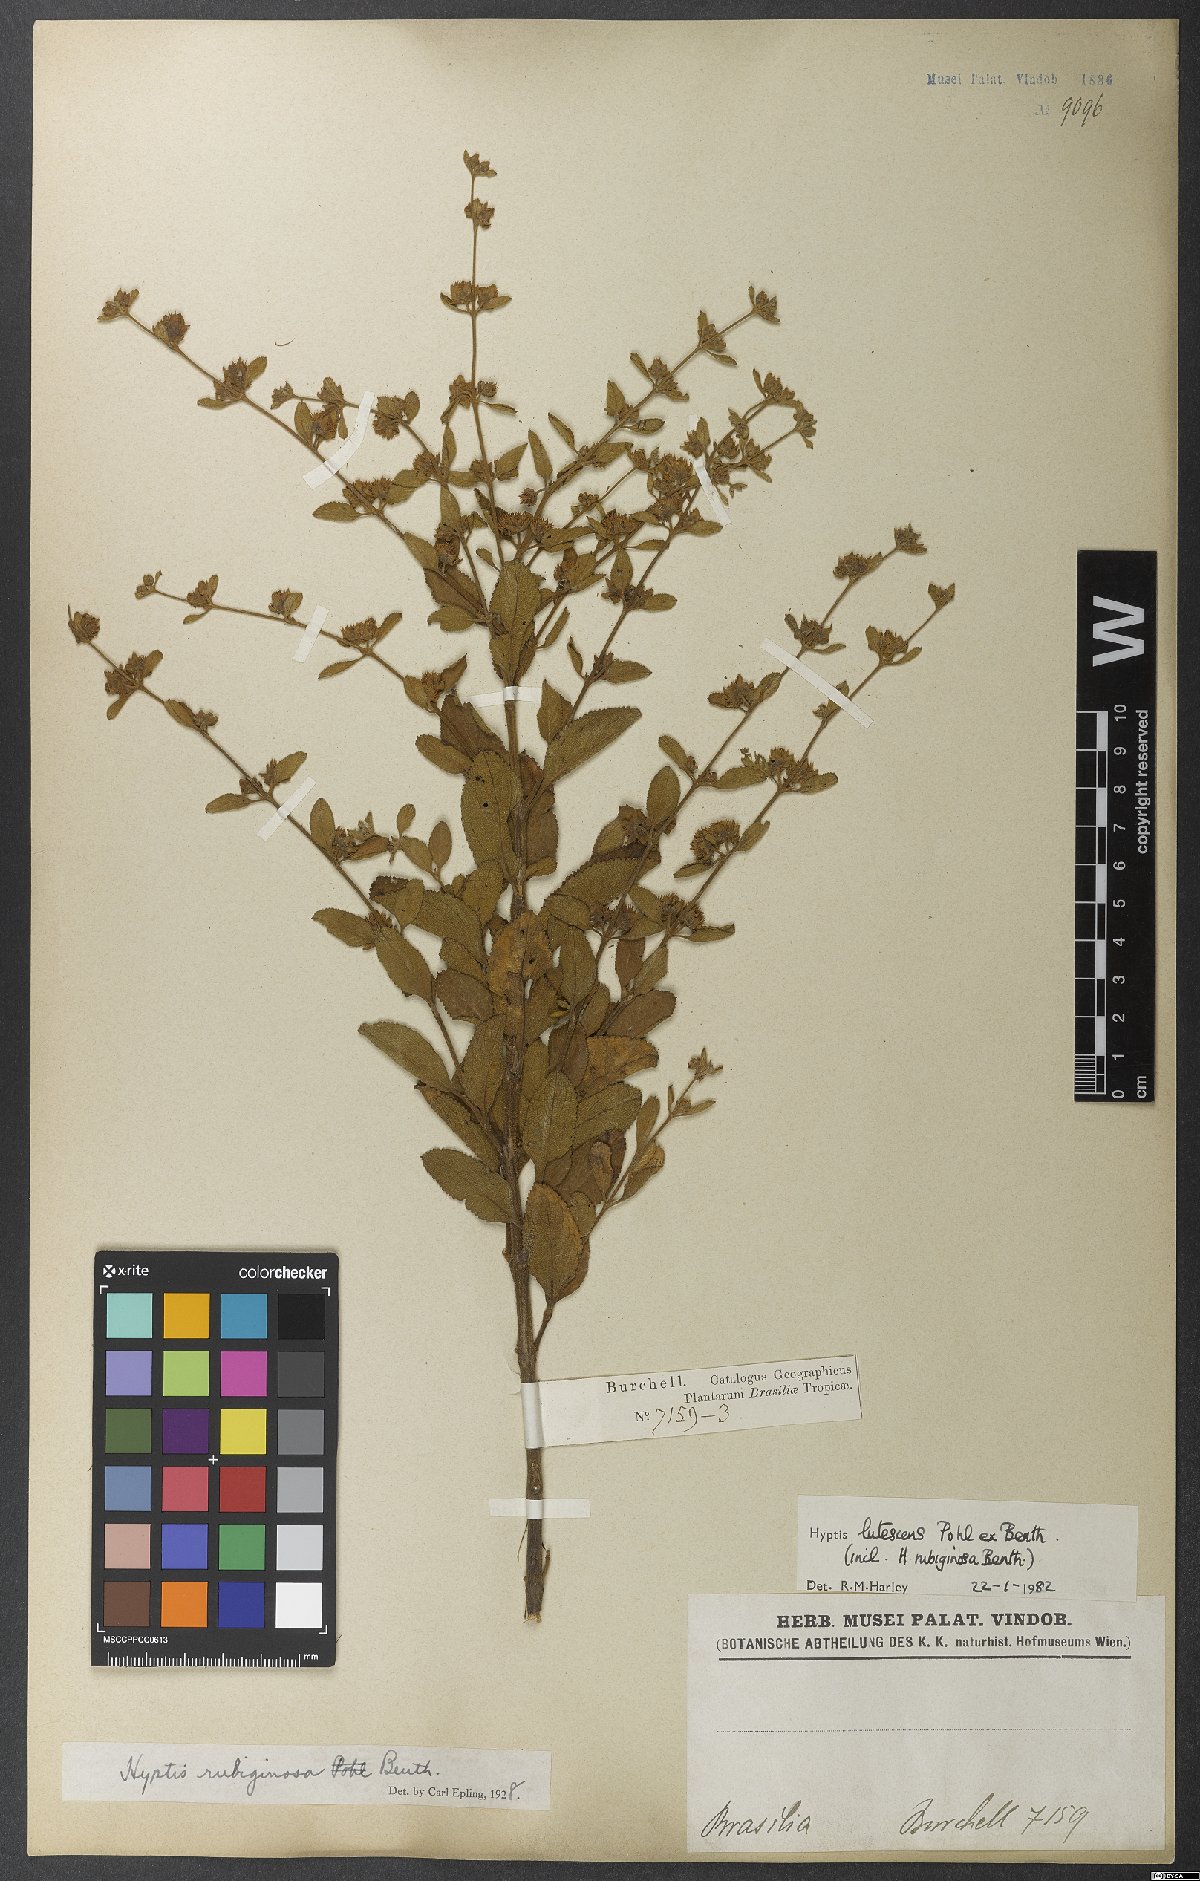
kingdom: Plantae
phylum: Tracheophyta
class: Magnoliopsida
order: Lamiales
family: Lamiaceae
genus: Hyptis
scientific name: Hyptis lutescens
